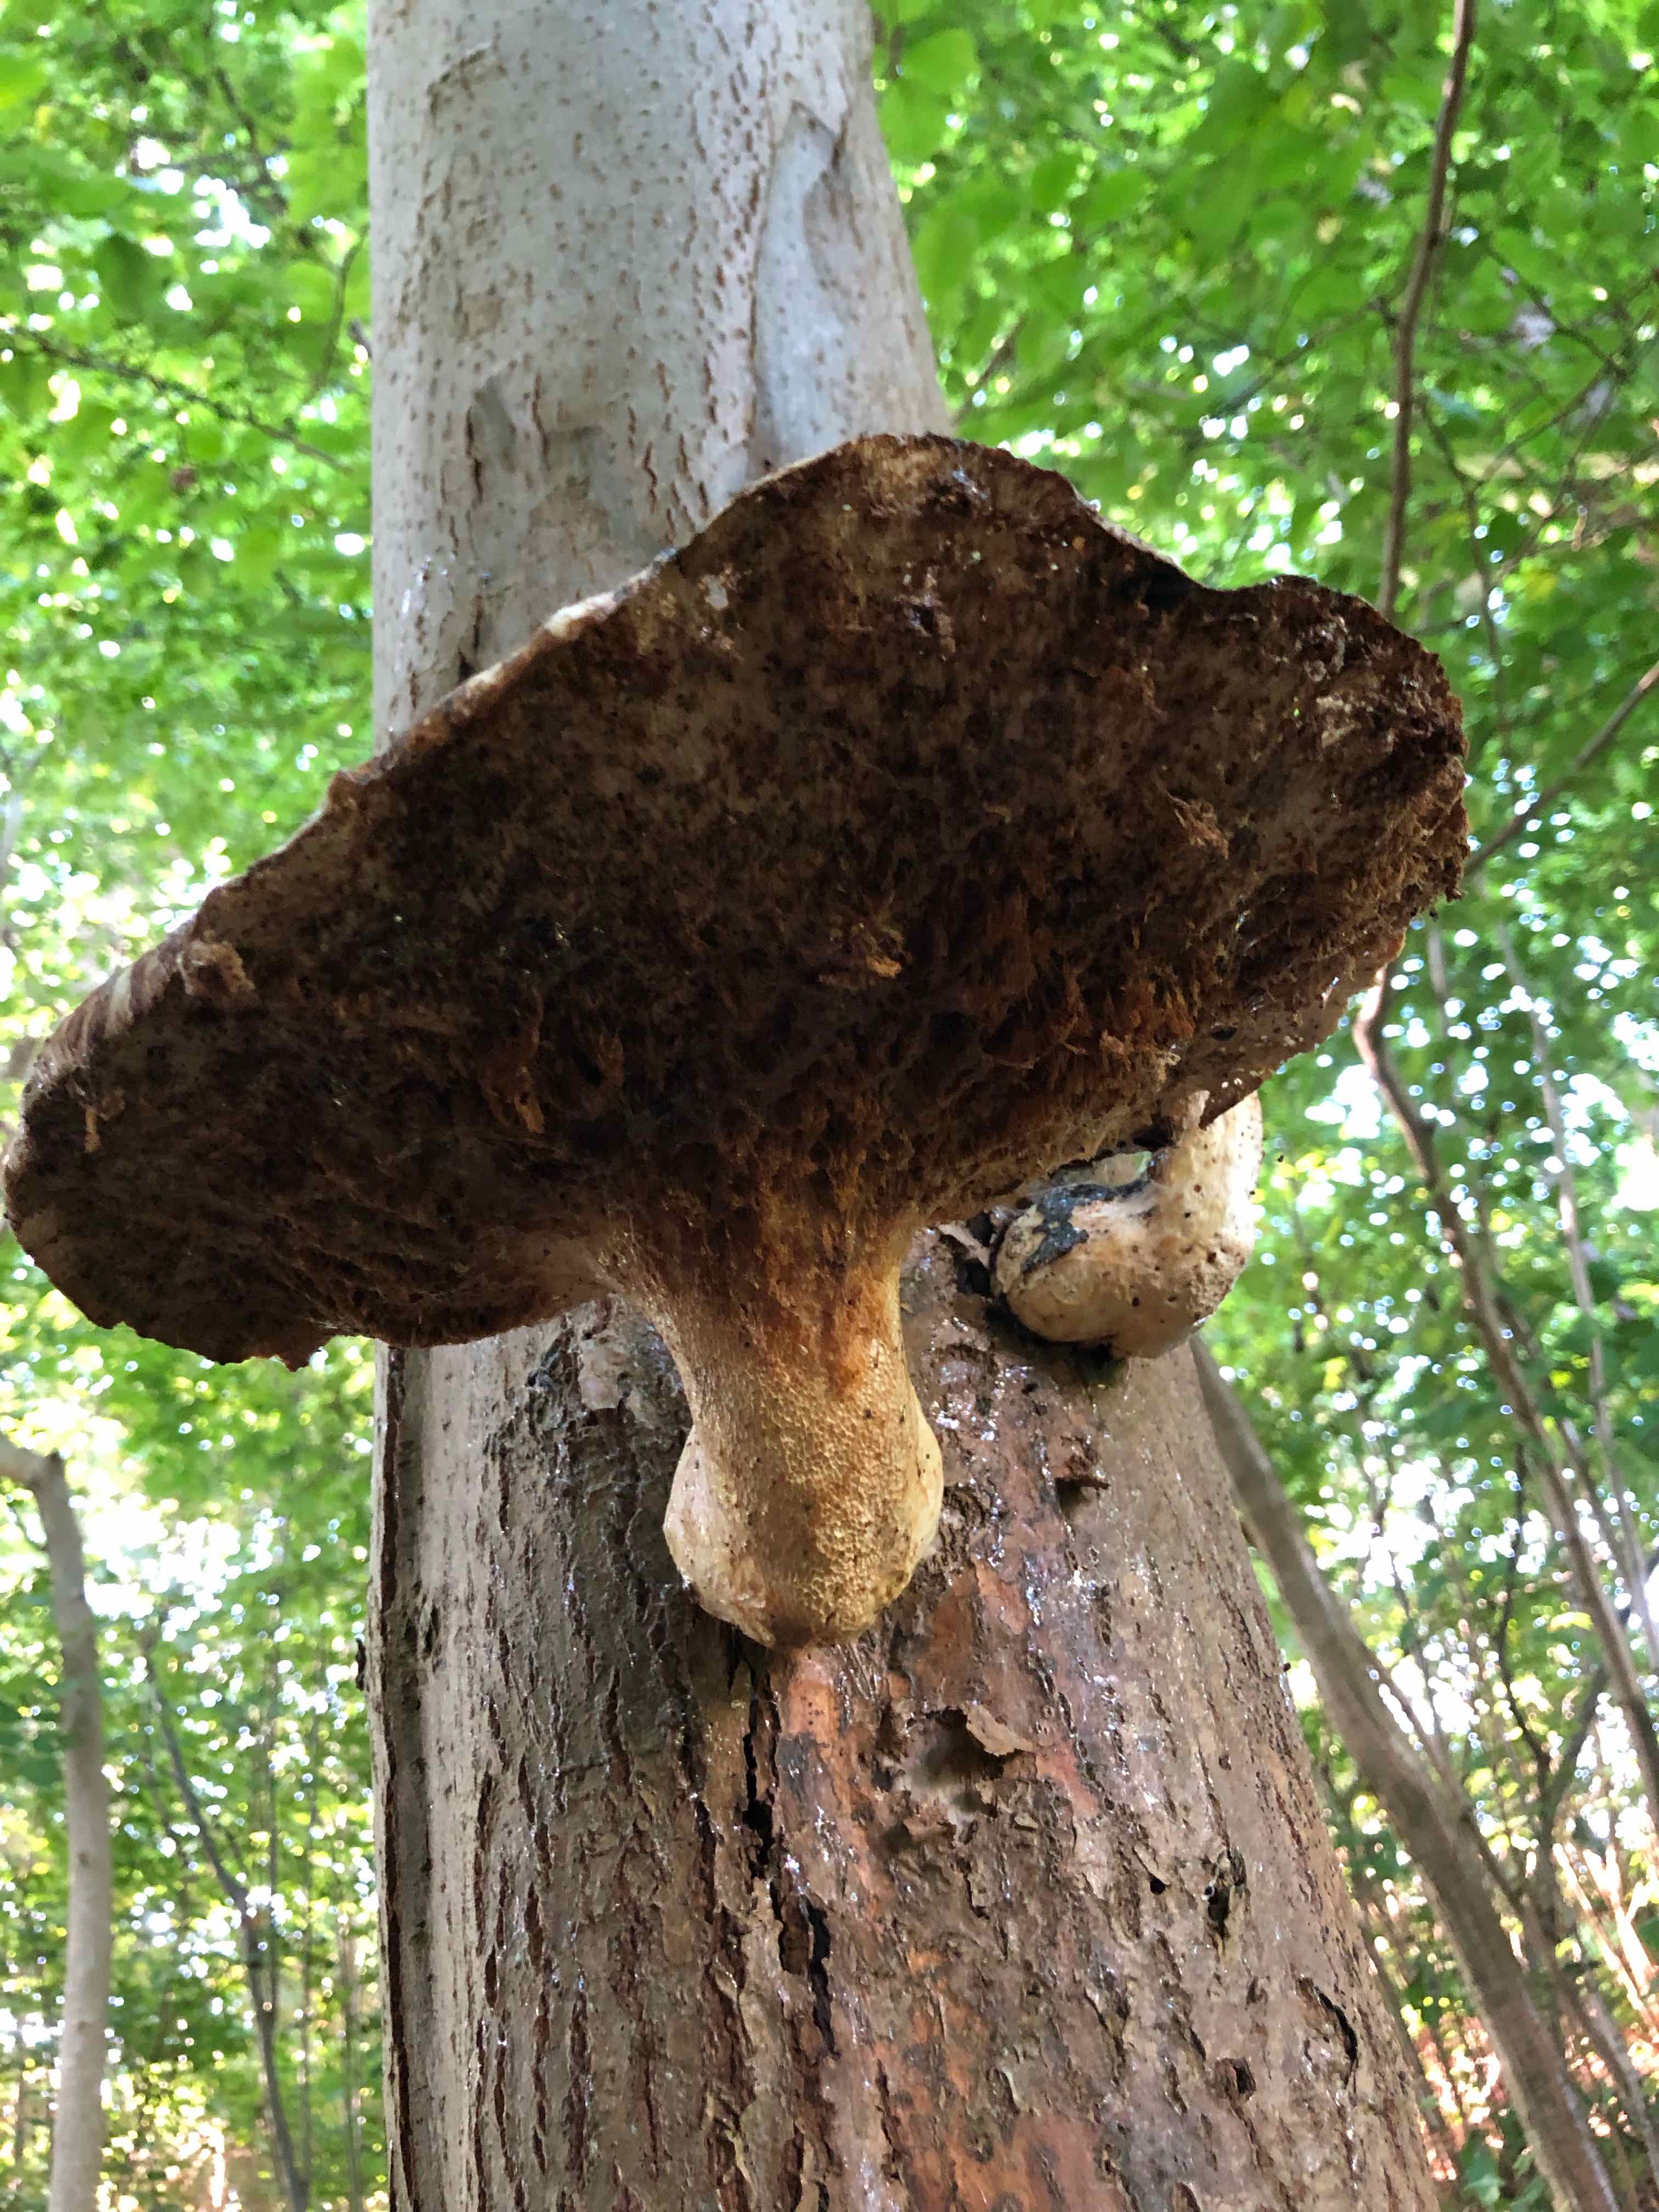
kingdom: Fungi
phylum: Basidiomycota
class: Agaricomycetes
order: Polyporales
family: Polyporaceae
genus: Cerioporus
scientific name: Cerioporus squamosus
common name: skællet stilkporesvamp
